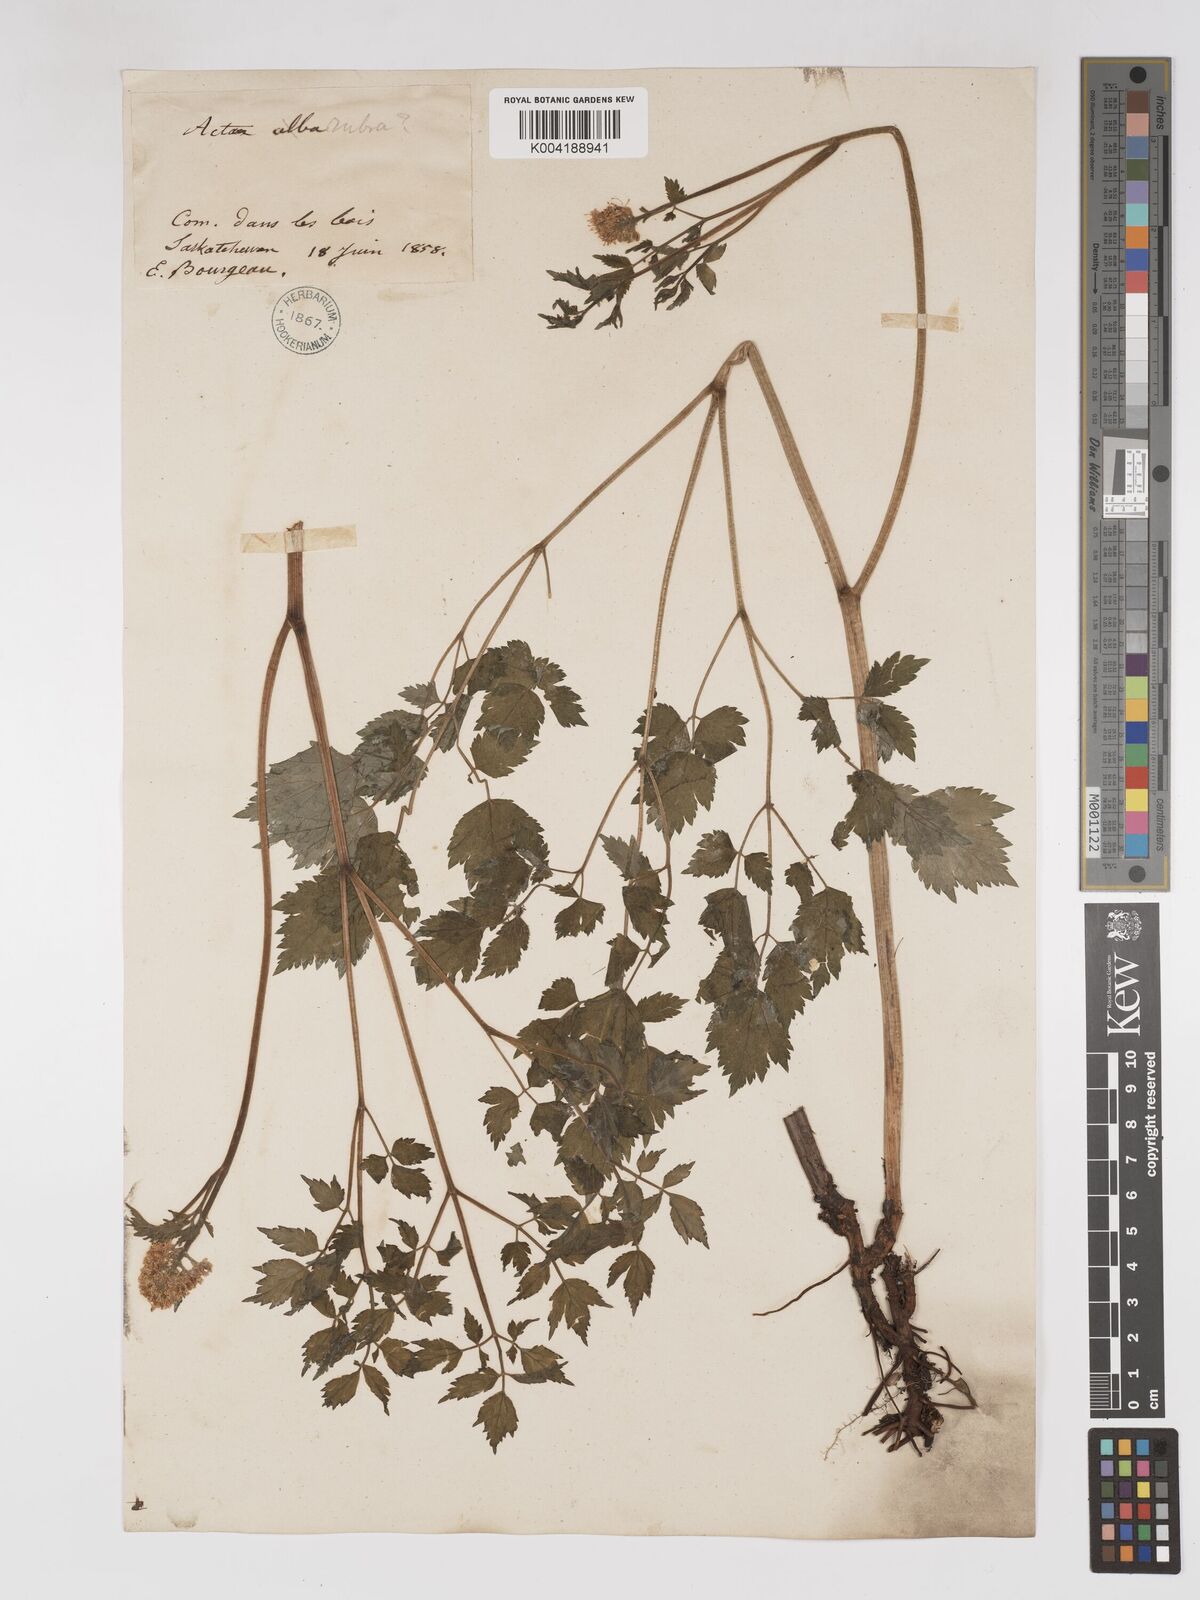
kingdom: Plantae
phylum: Tracheophyta
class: Magnoliopsida
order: Ranunculales
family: Ranunculaceae
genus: Actaea
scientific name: Actaea rubra
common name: Red baneberry
